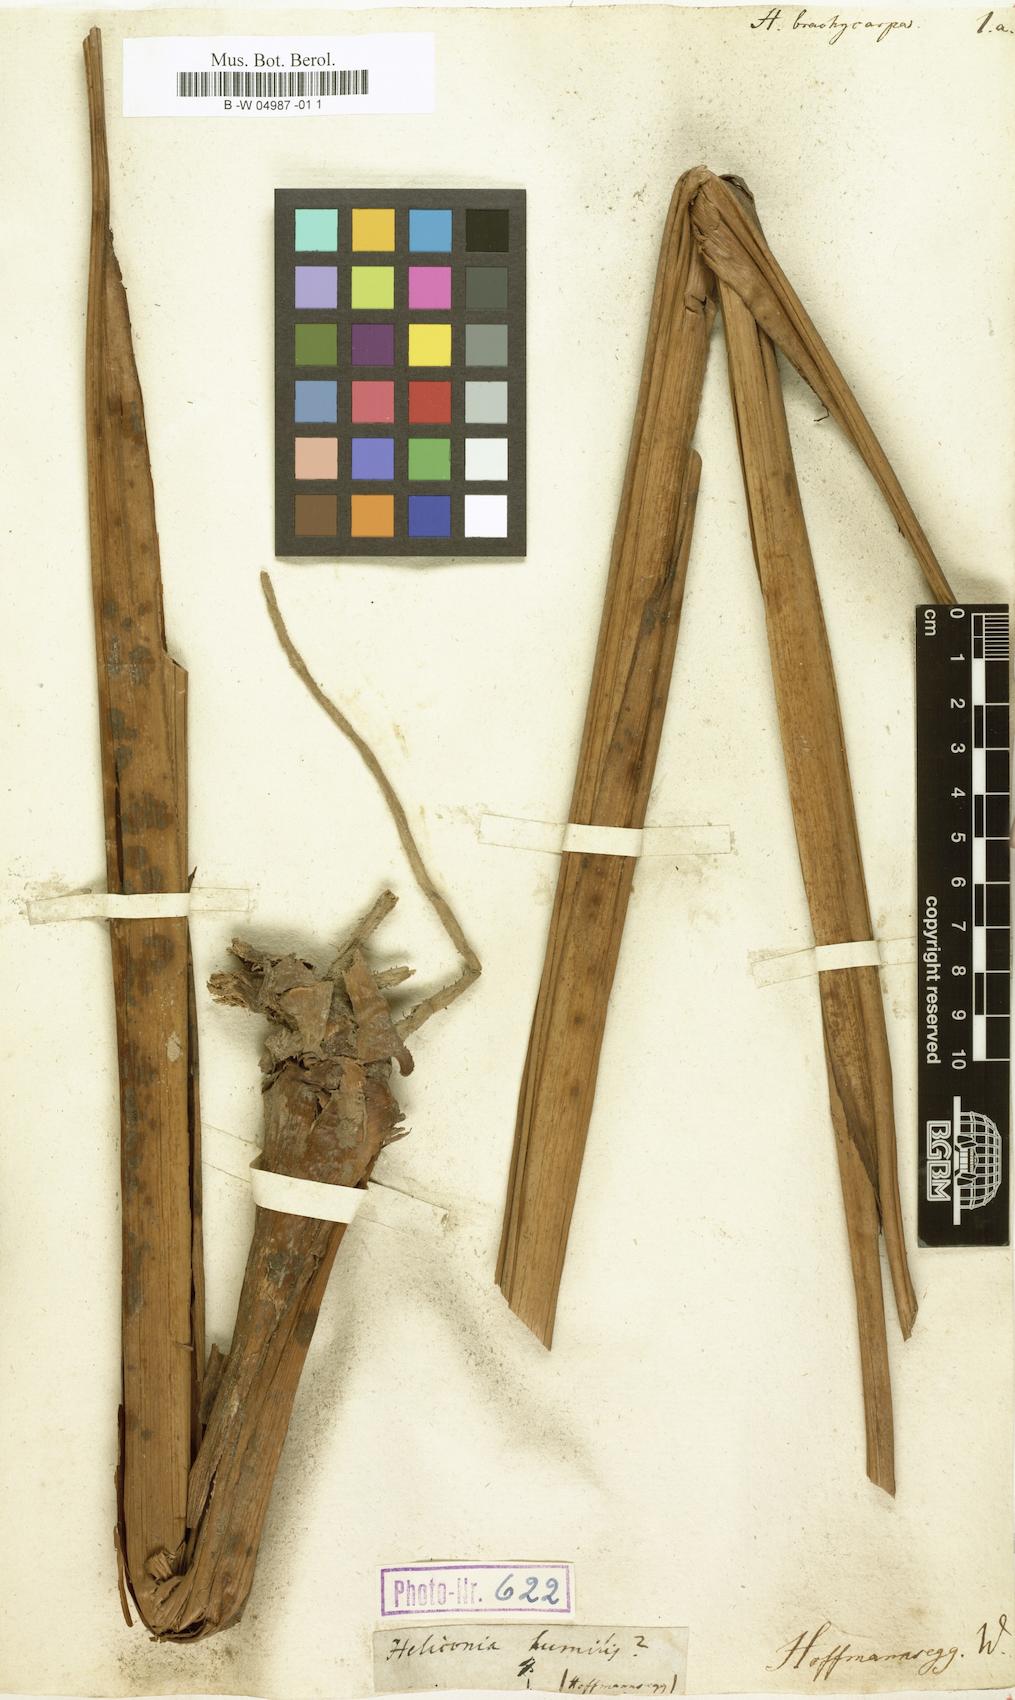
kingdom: Plantae
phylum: Tracheophyta
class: Liliopsida
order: Zingiberales
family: Heliconiaceae
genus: Heliconia
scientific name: Heliconia
